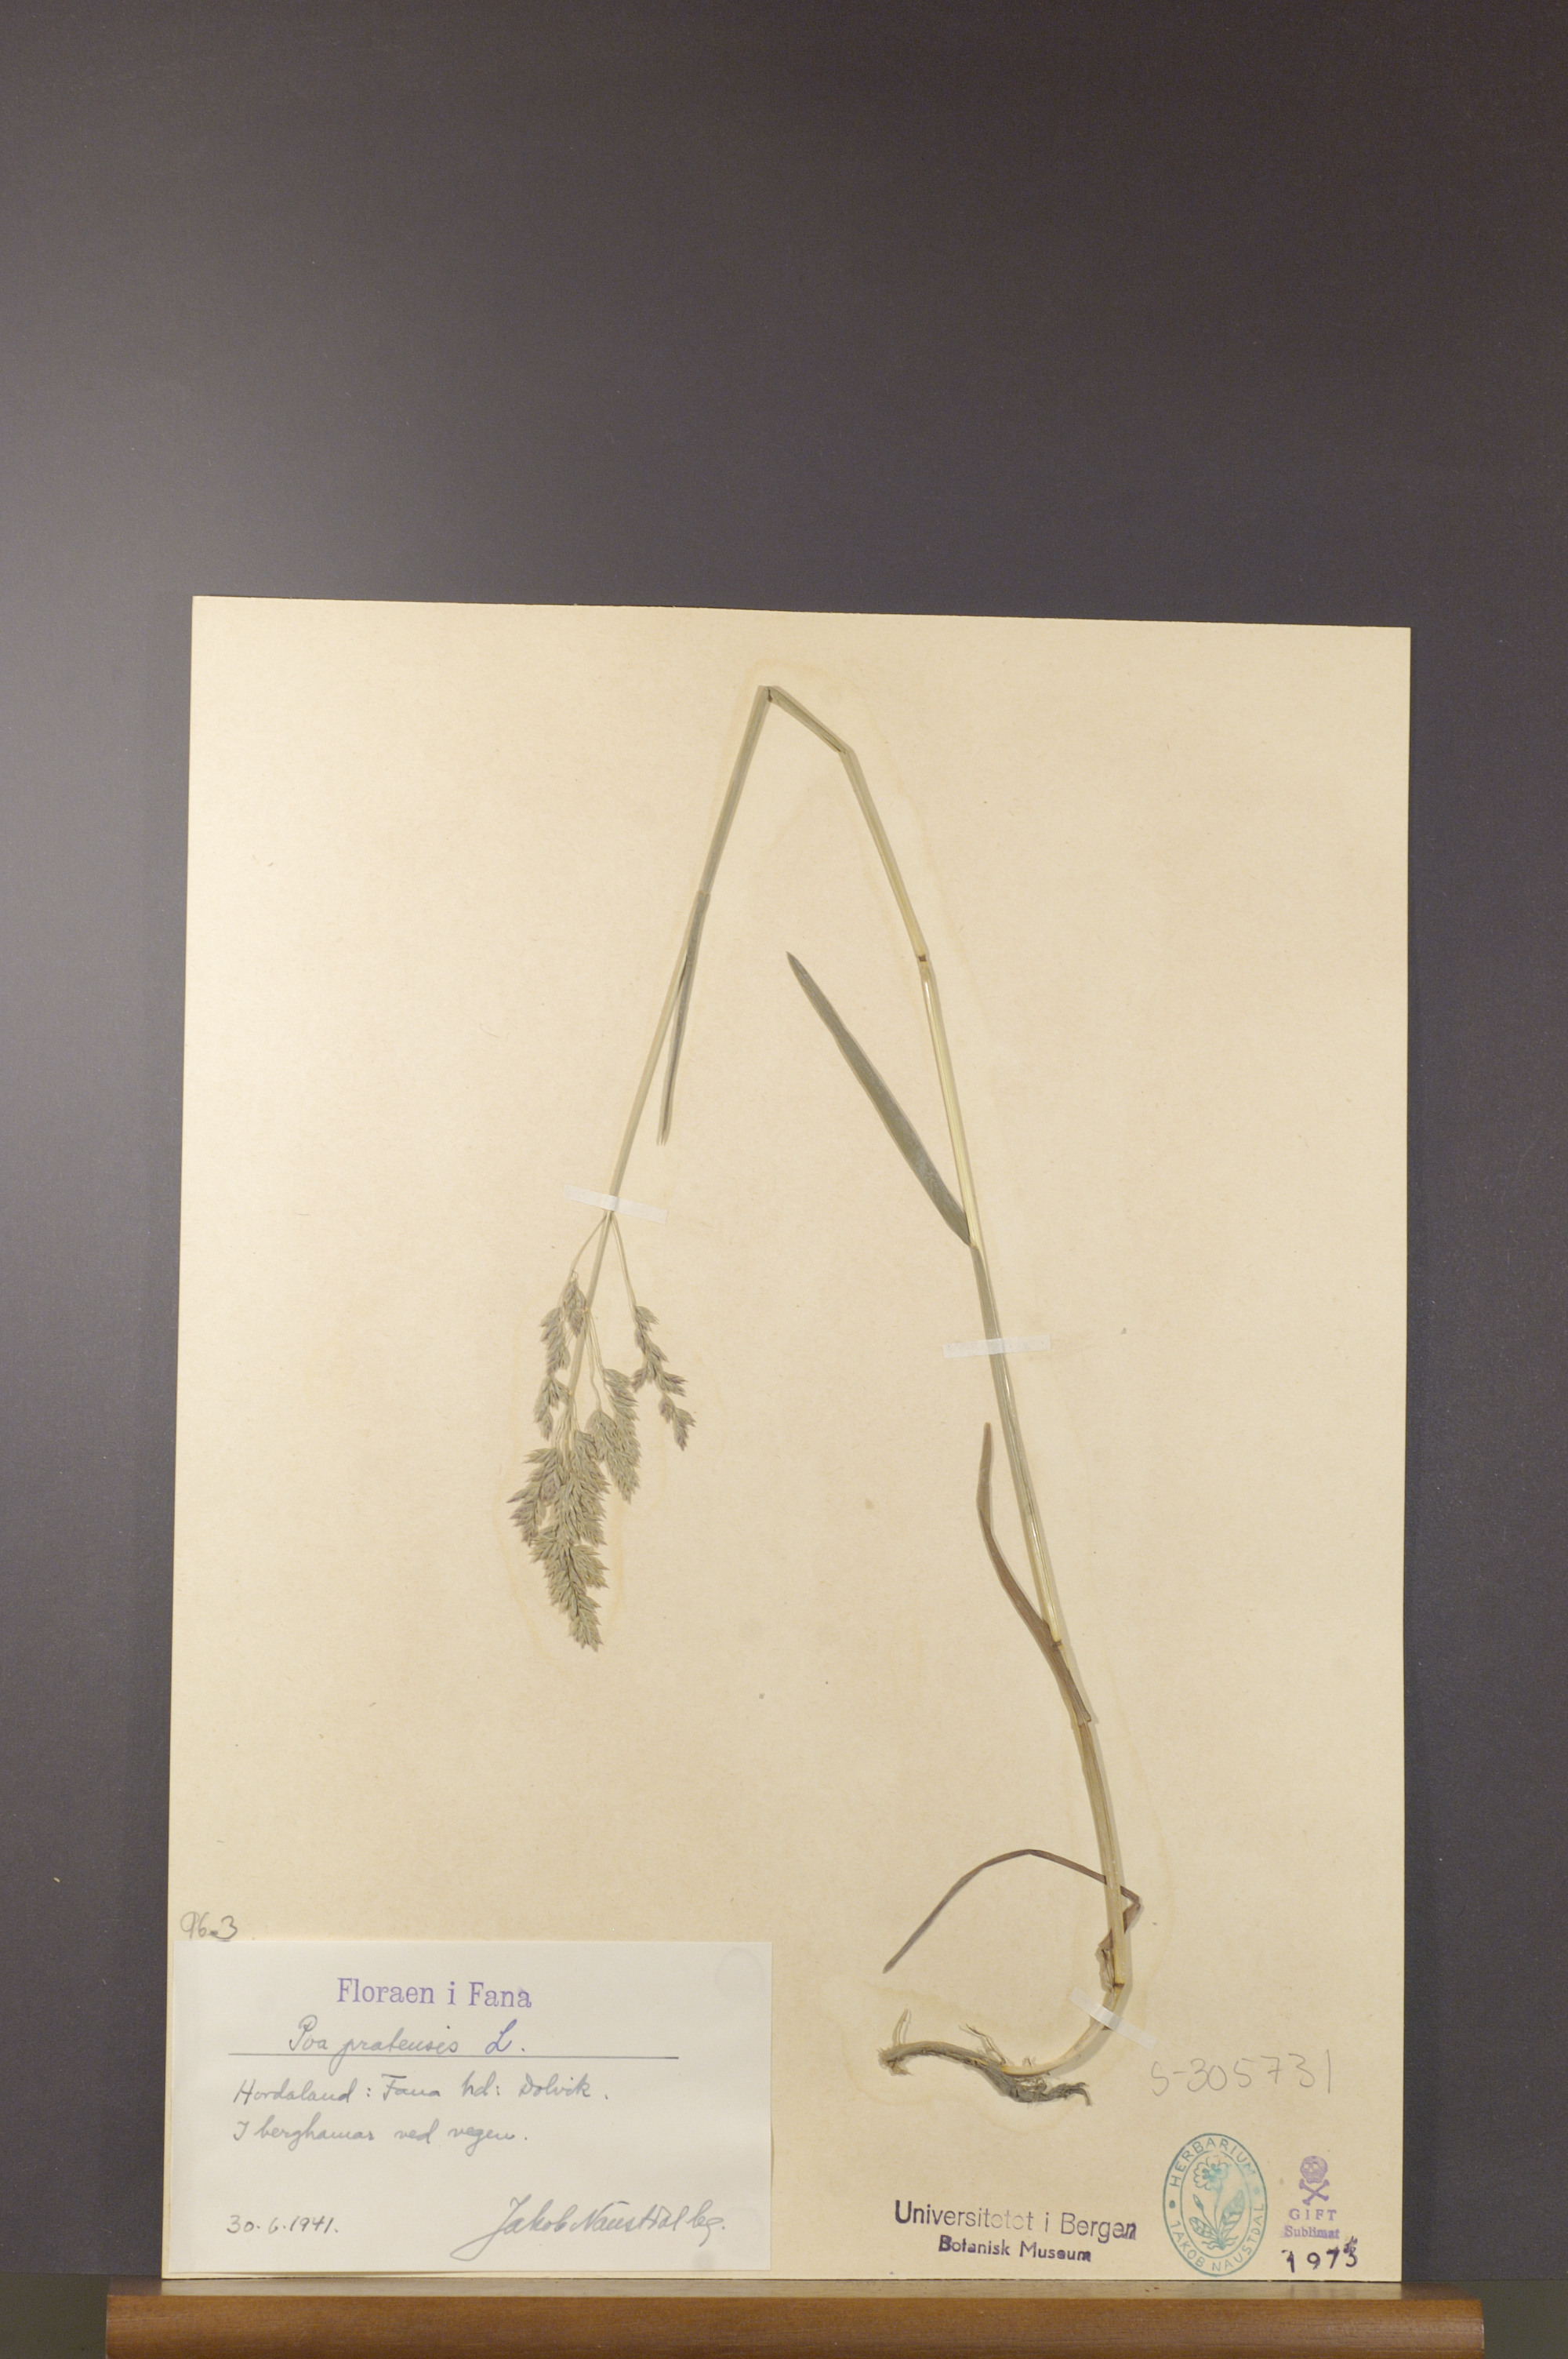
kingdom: Plantae
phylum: Tracheophyta
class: Liliopsida
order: Poales
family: Poaceae
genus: Poa
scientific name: Poa pratensis
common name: Kentucky bluegrass
